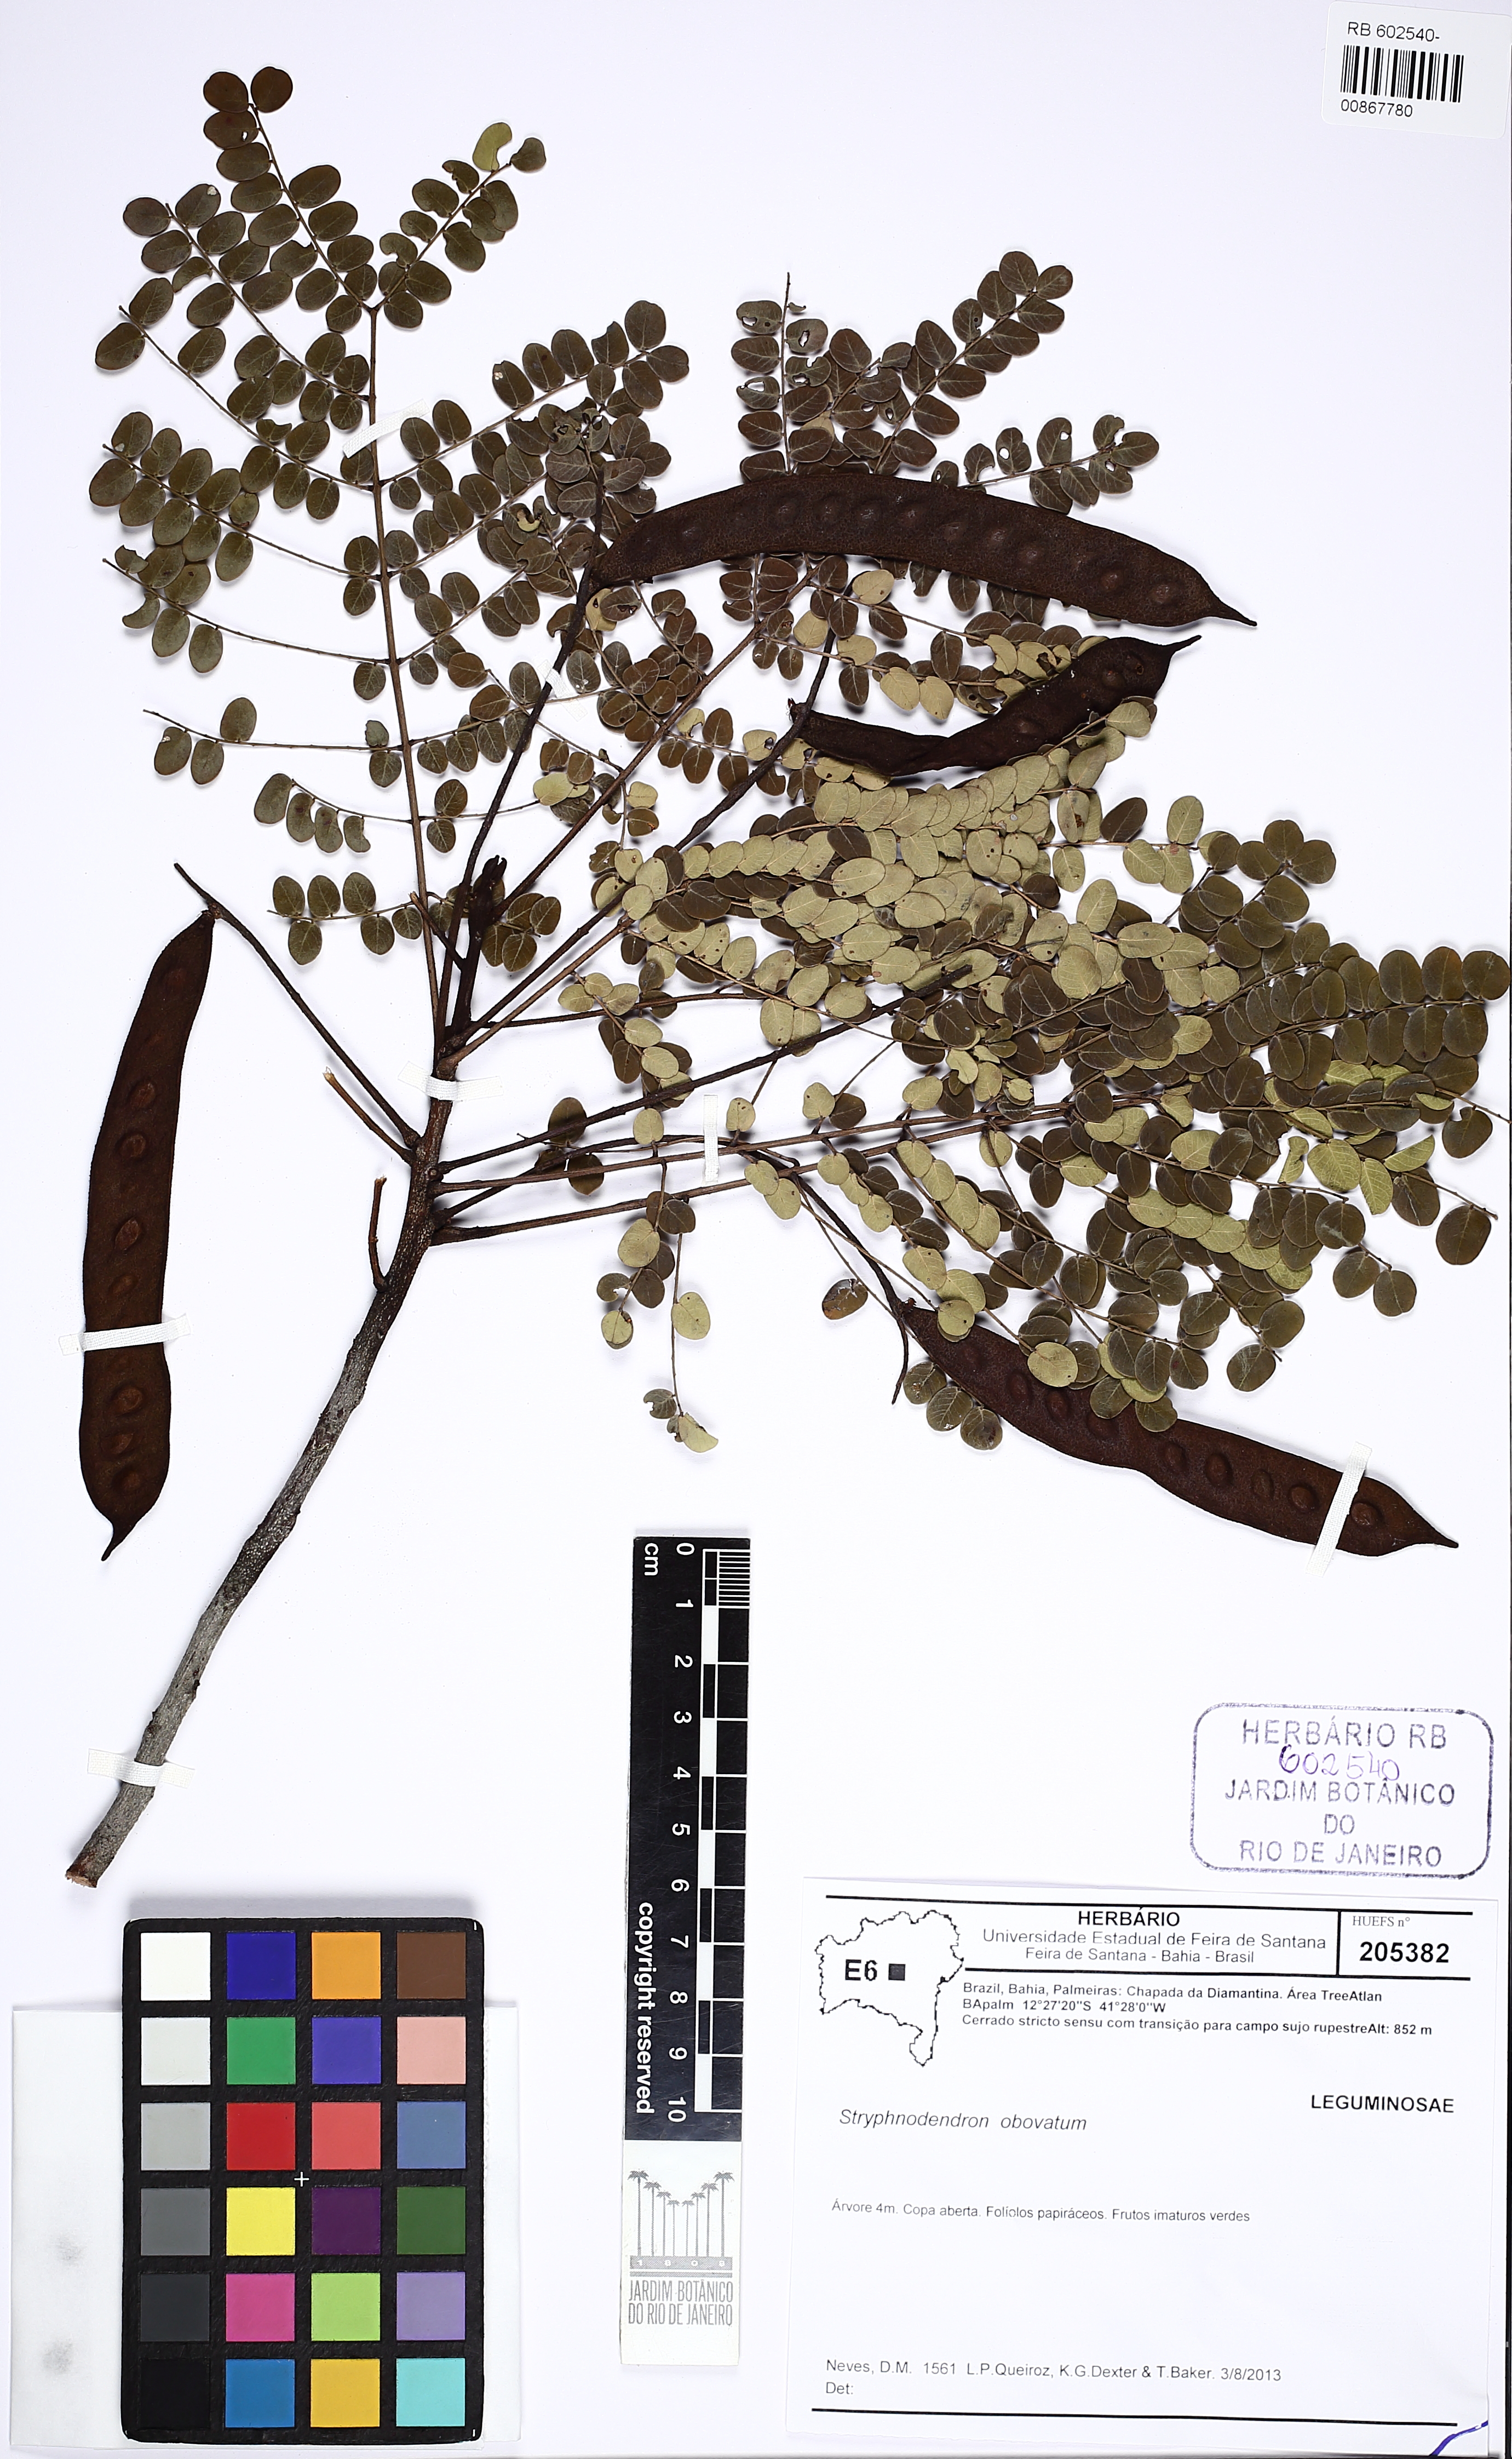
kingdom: Plantae
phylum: Tracheophyta
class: Magnoliopsida
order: Fabales
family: Fabaceae
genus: Stryphnodendron
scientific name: Stryphnodendron rotundifolium
